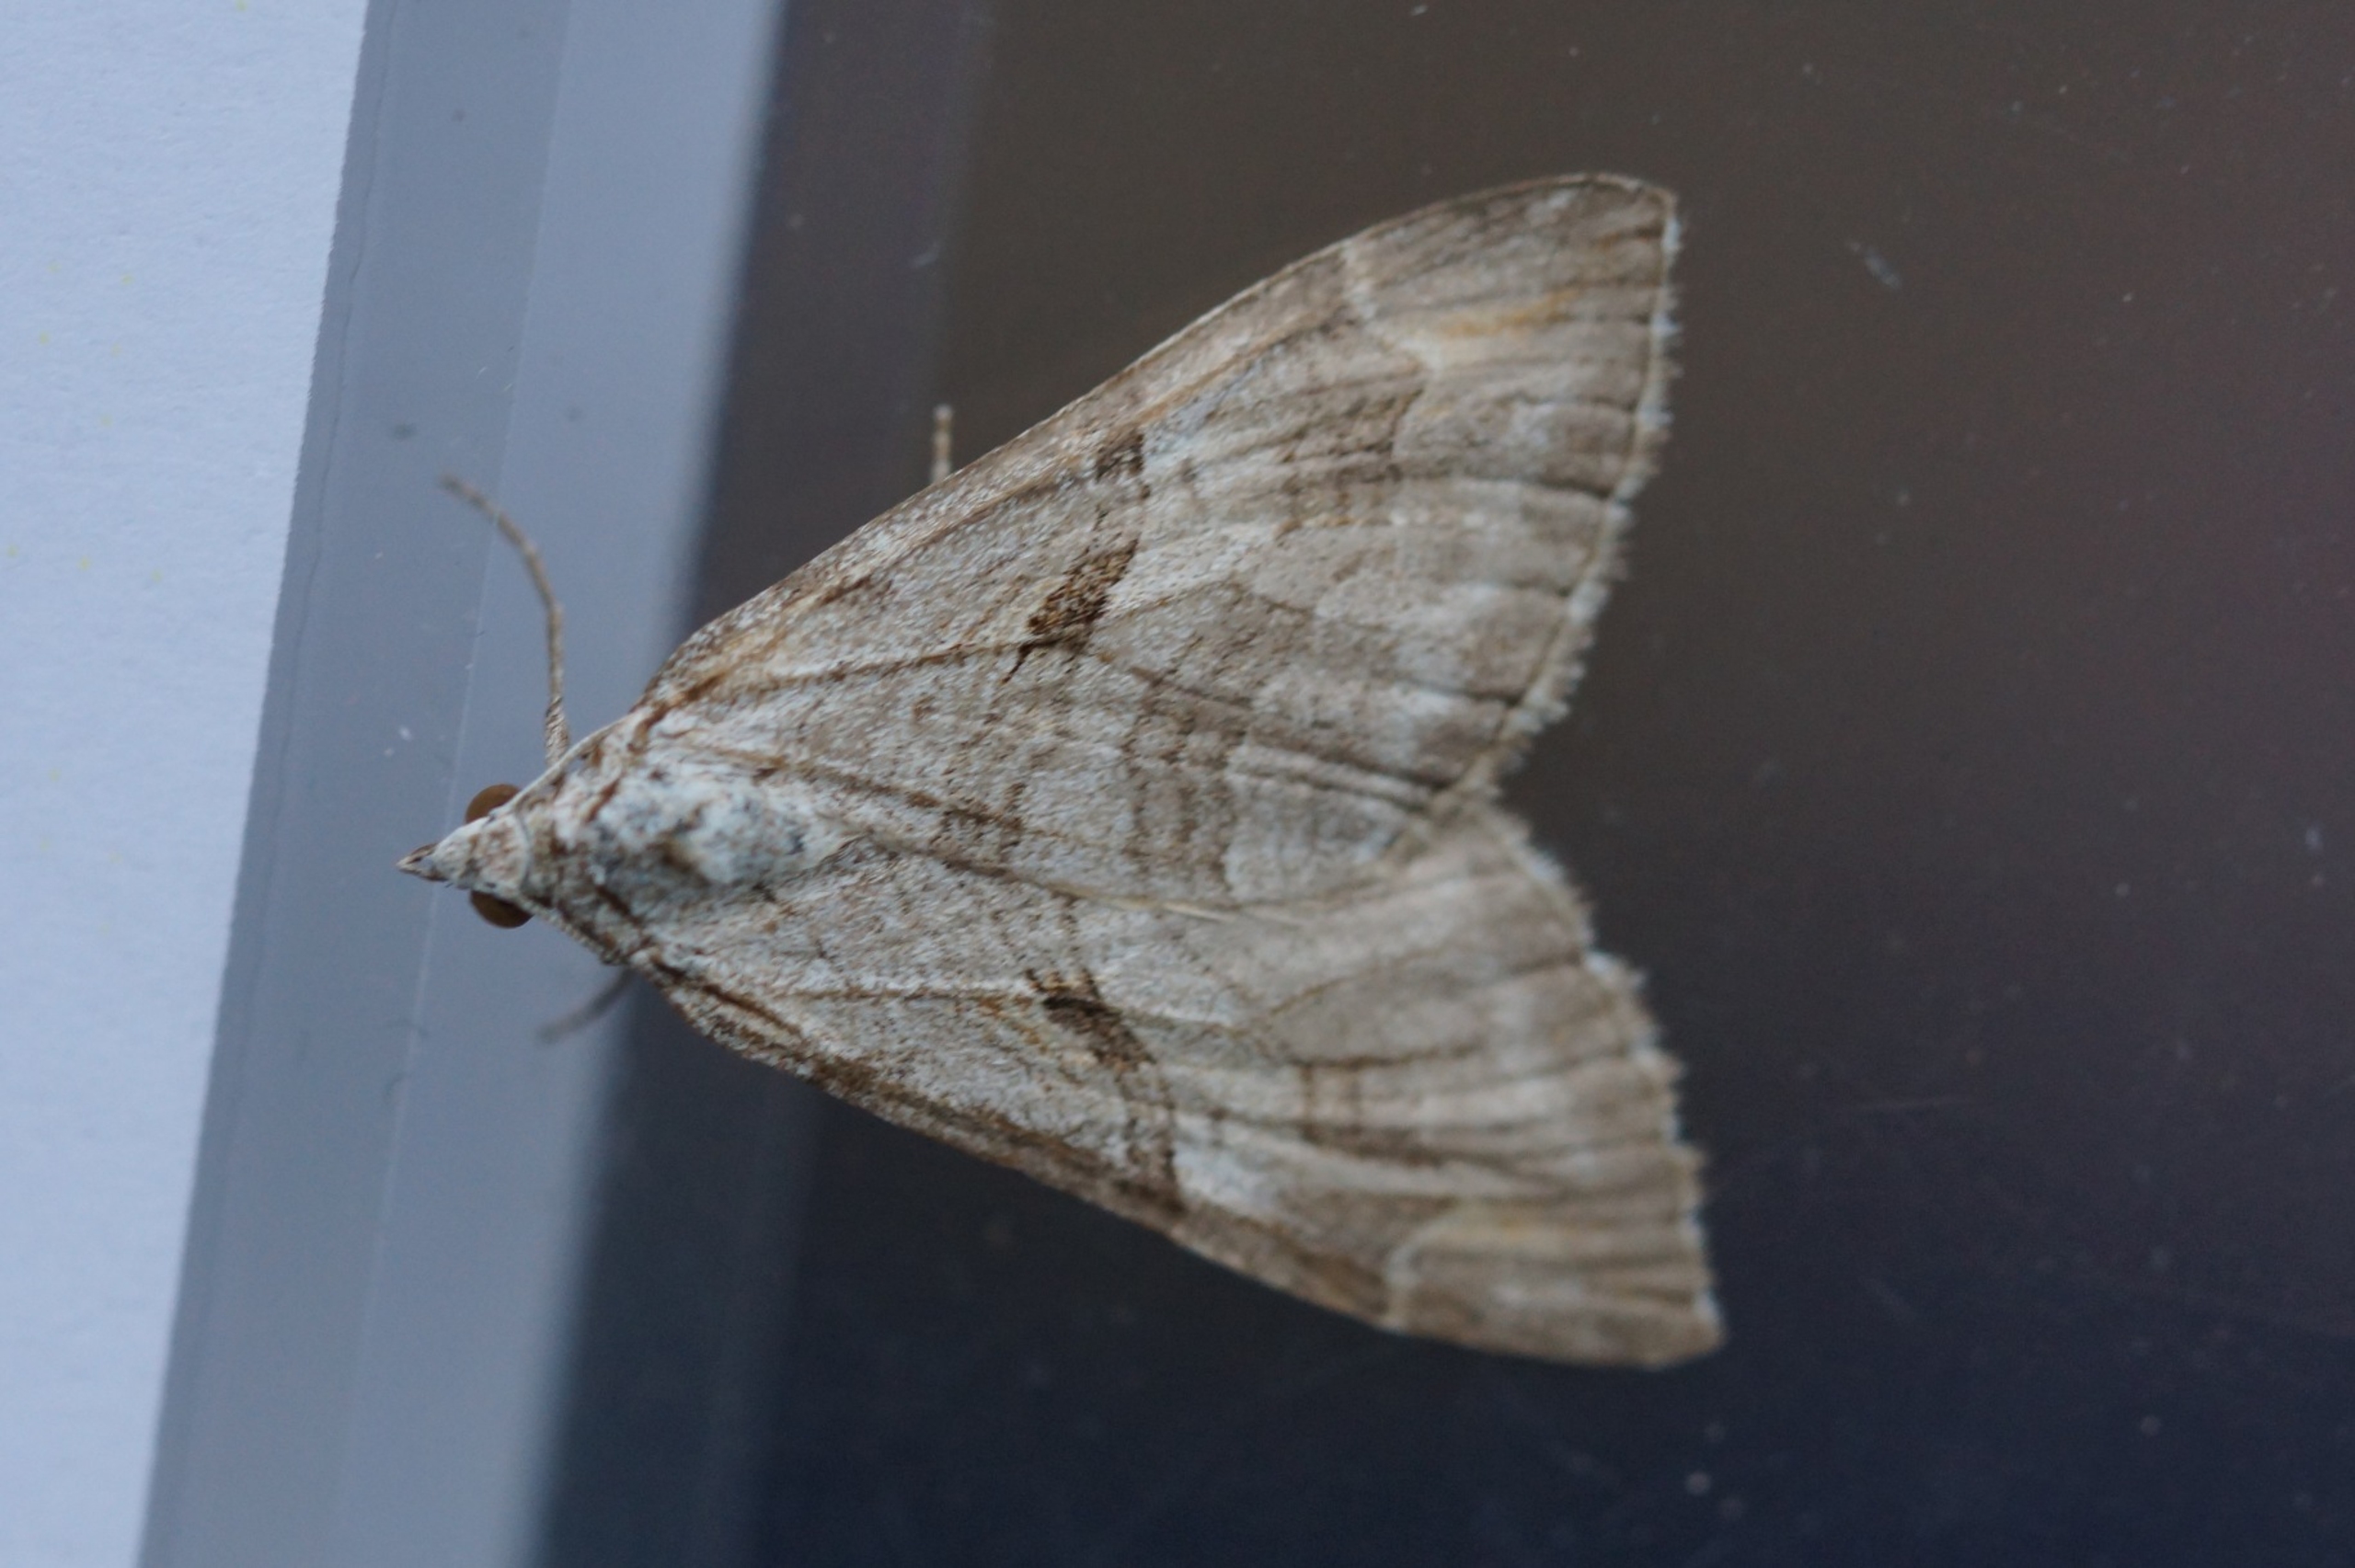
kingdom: Animalia
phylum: Arthropoda
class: Insecta
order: Lepidoptera
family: Geometridae
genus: Aplocera
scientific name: Aplocera efformata
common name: Perikonmåler
